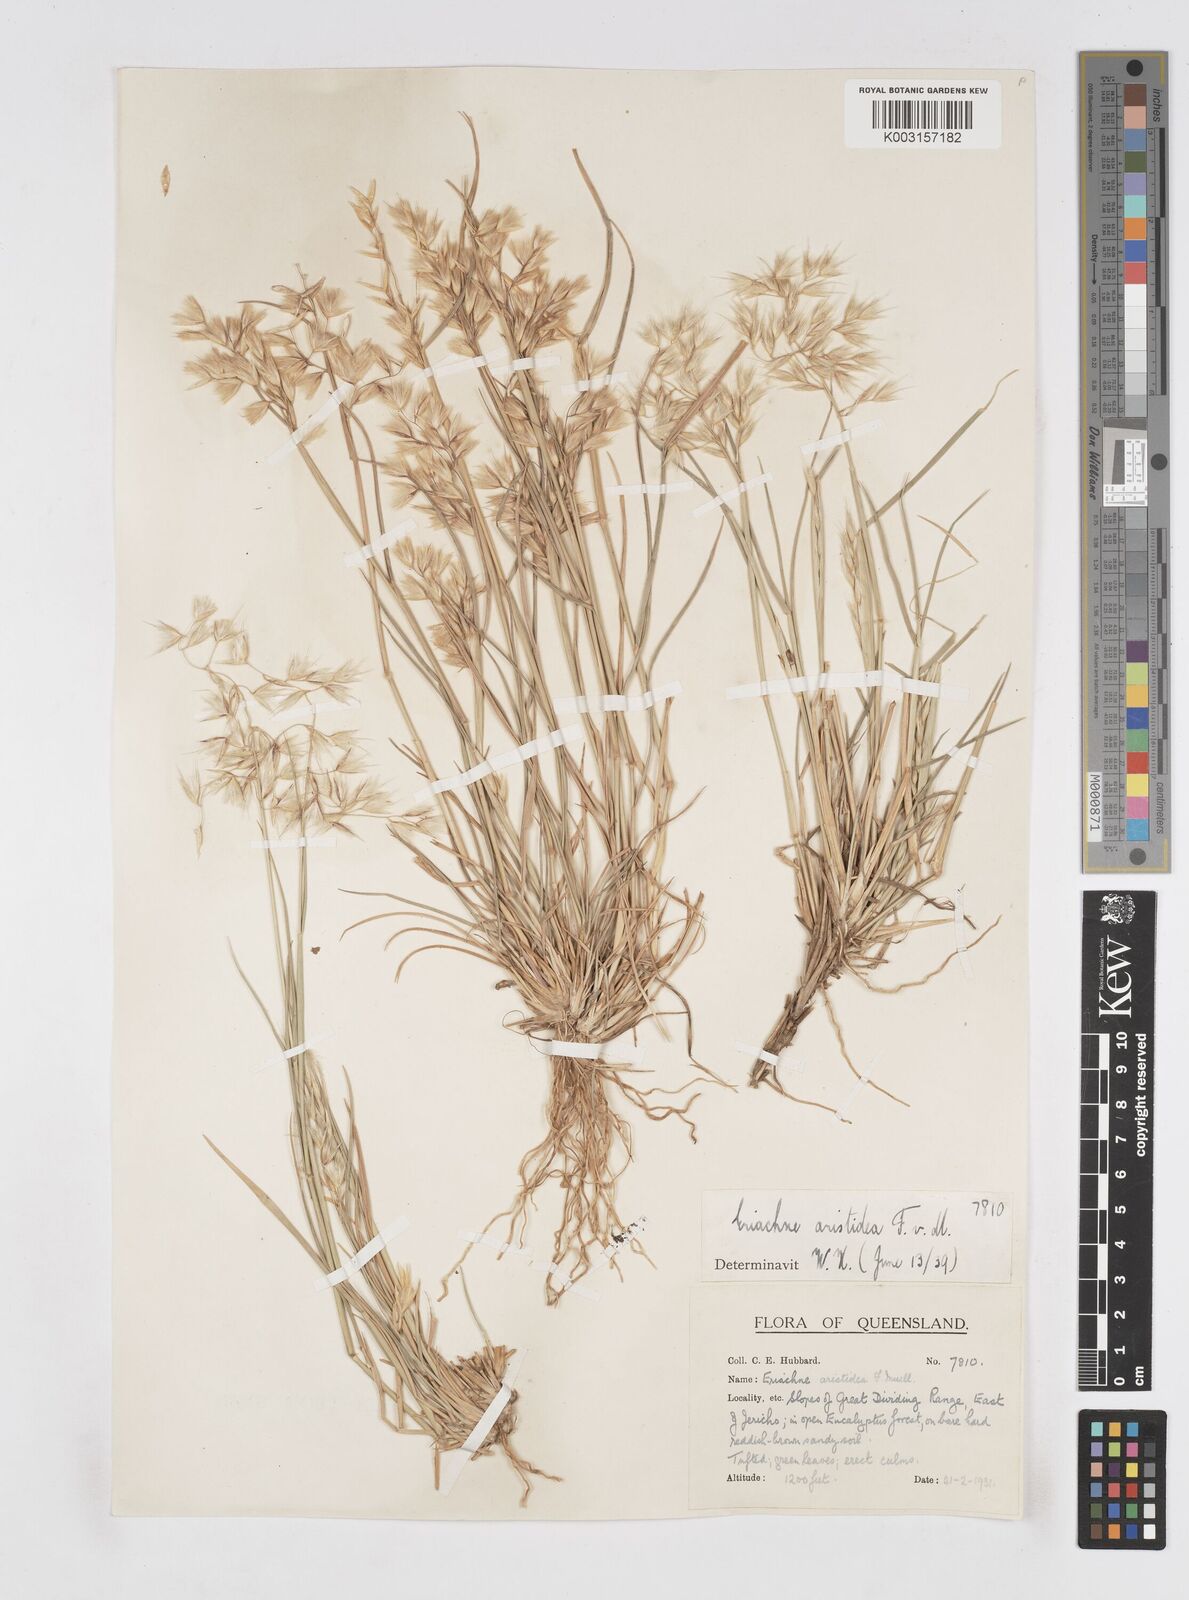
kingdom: Plantae
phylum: Tracheophyta
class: Liliopsida
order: Poales
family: Poaceae
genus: Eriachne
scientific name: Eriachne aristidea
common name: Three-awn wanderrie grass
